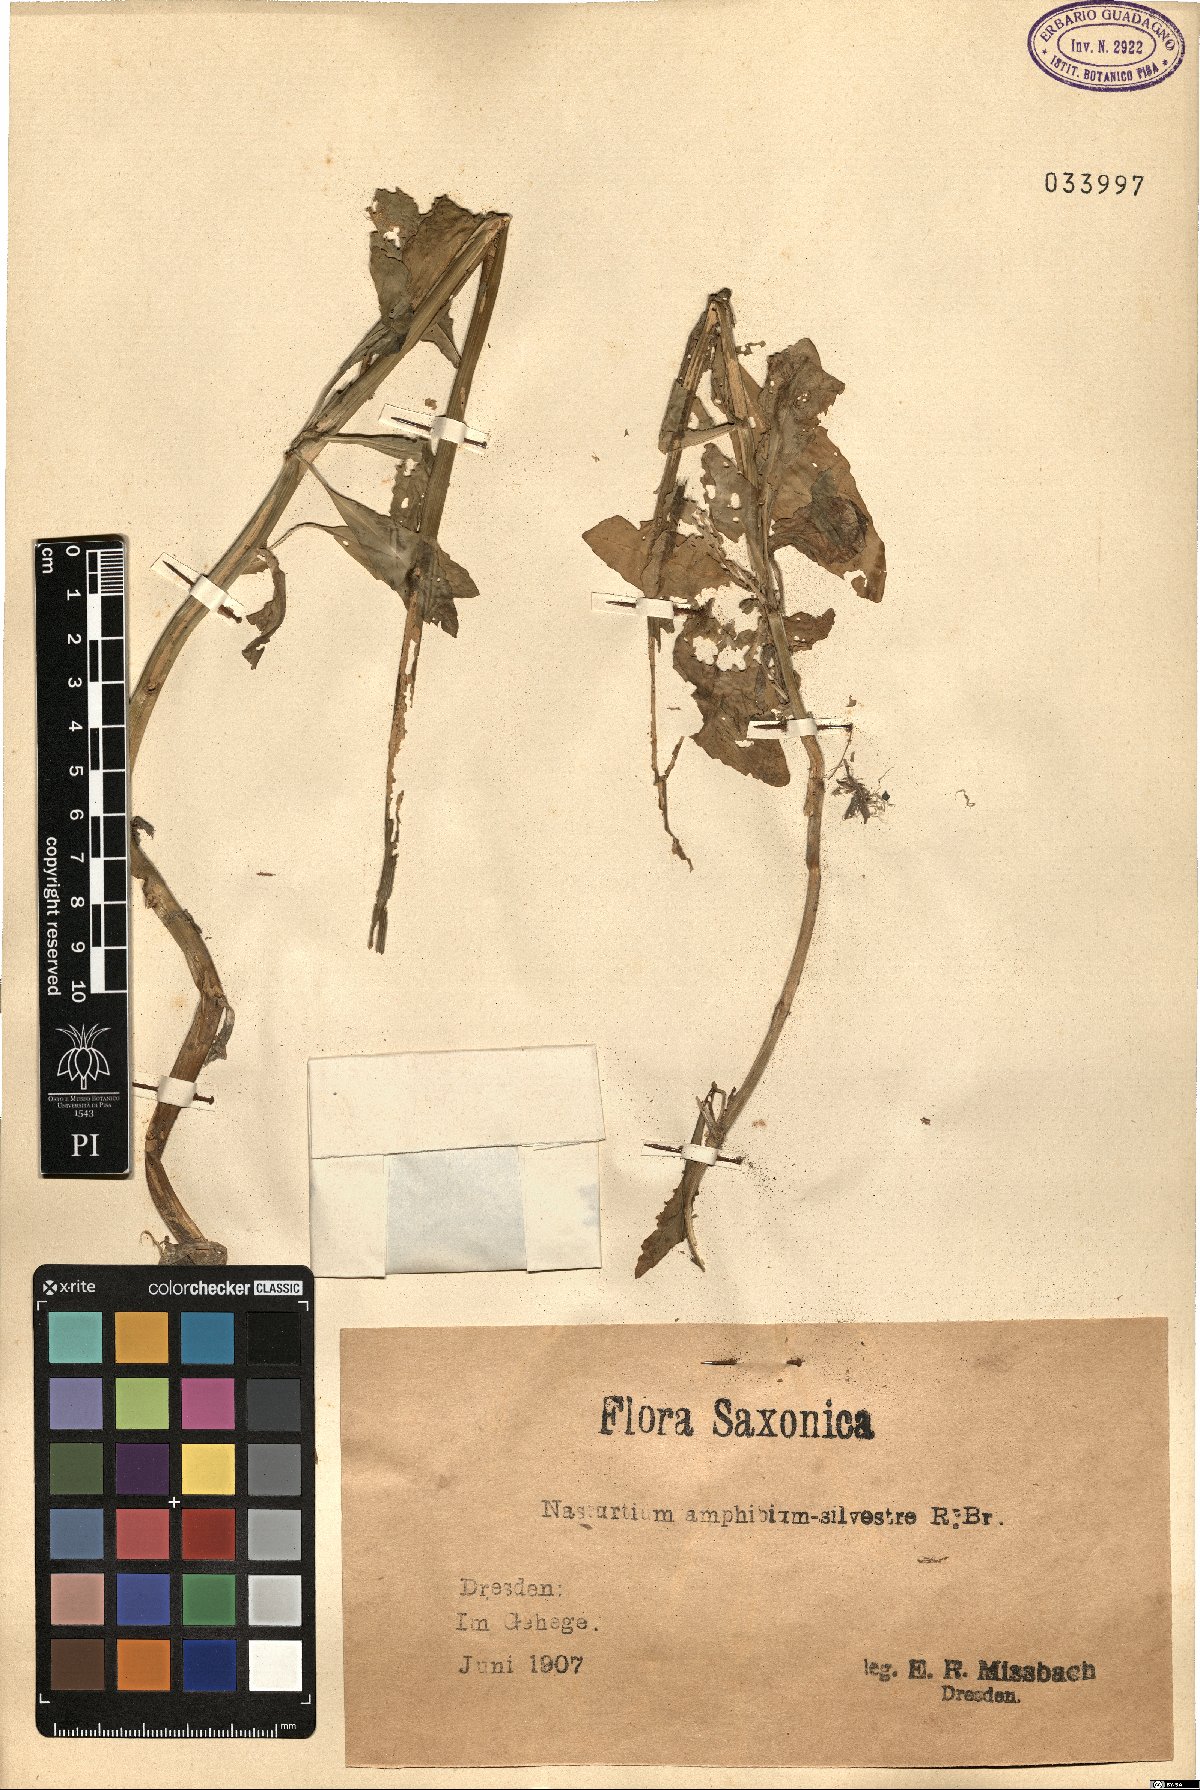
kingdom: Plantae
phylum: Tracheophyta
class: Magnoliopsida
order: Brassicales
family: Brassicaceae
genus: Rorippa
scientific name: Rorippa amphibia
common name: Great yellow-cress
